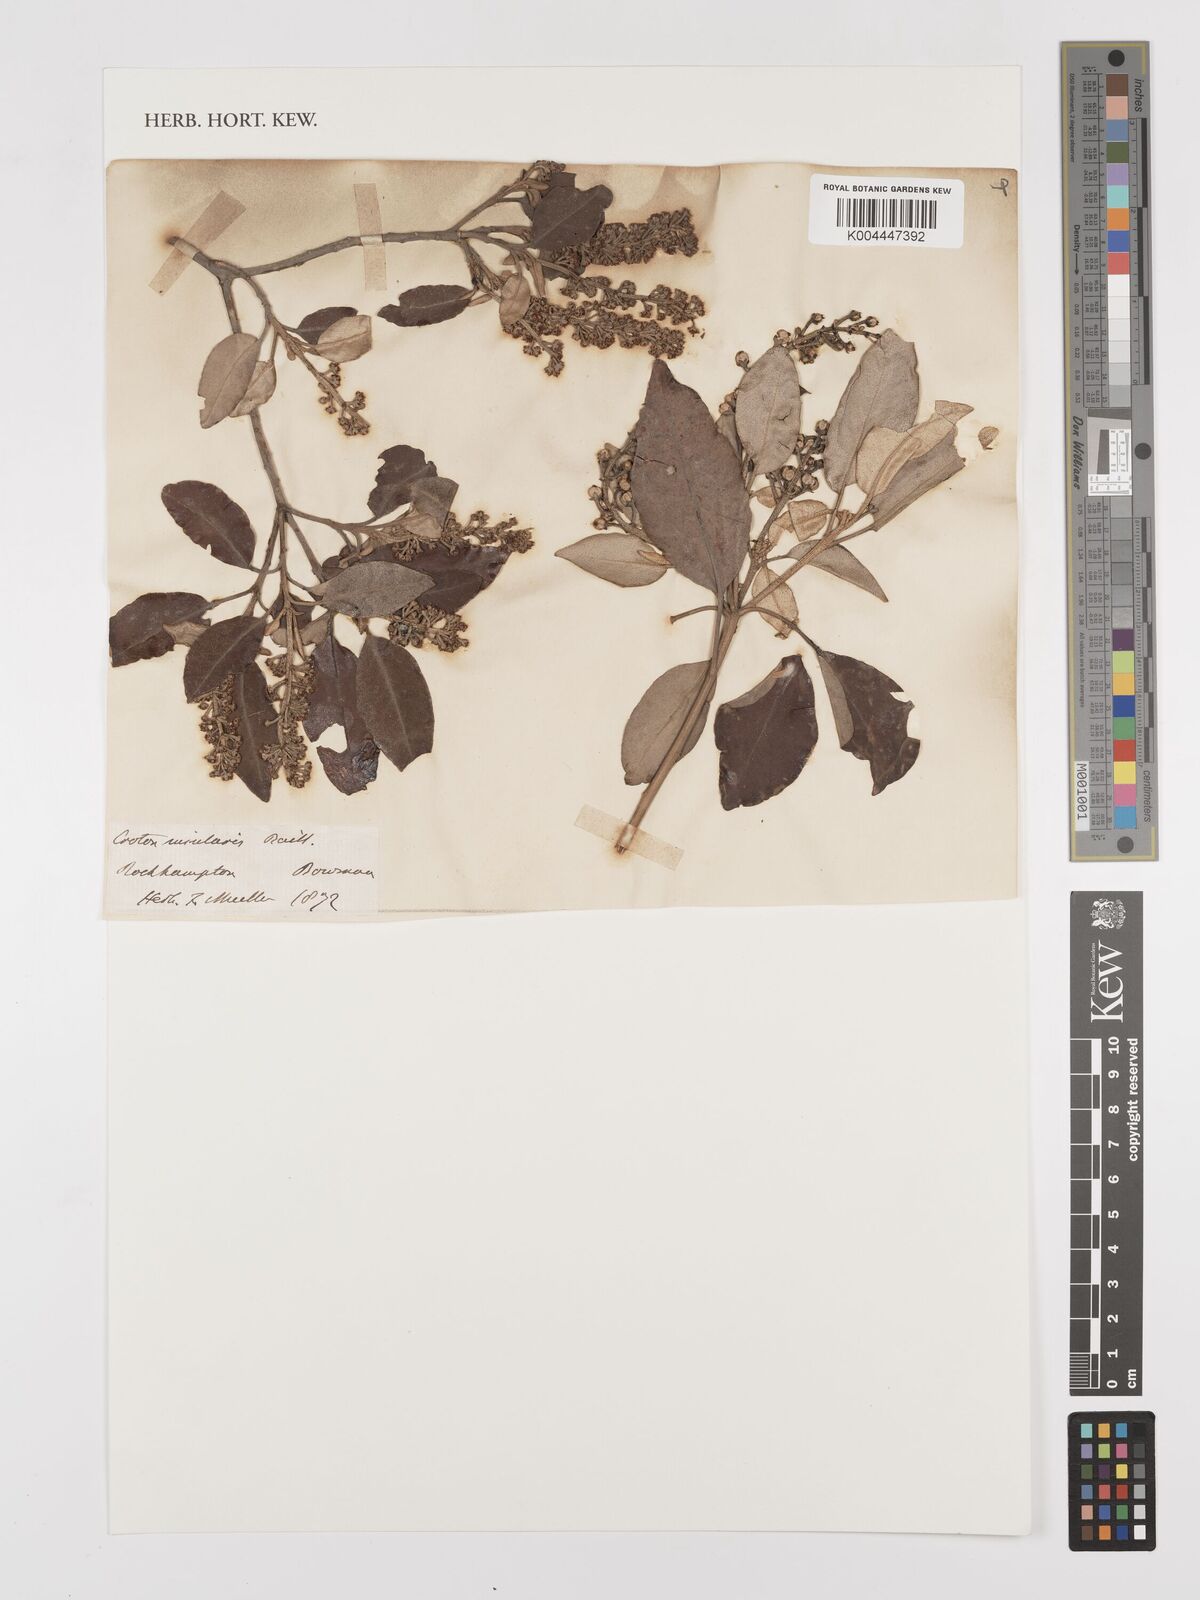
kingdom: Plantae
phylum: Tracheophyta
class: Magnoliopsida
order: Malpighiales
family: Euphorbiaceae
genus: Croton
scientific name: Croton insularis
